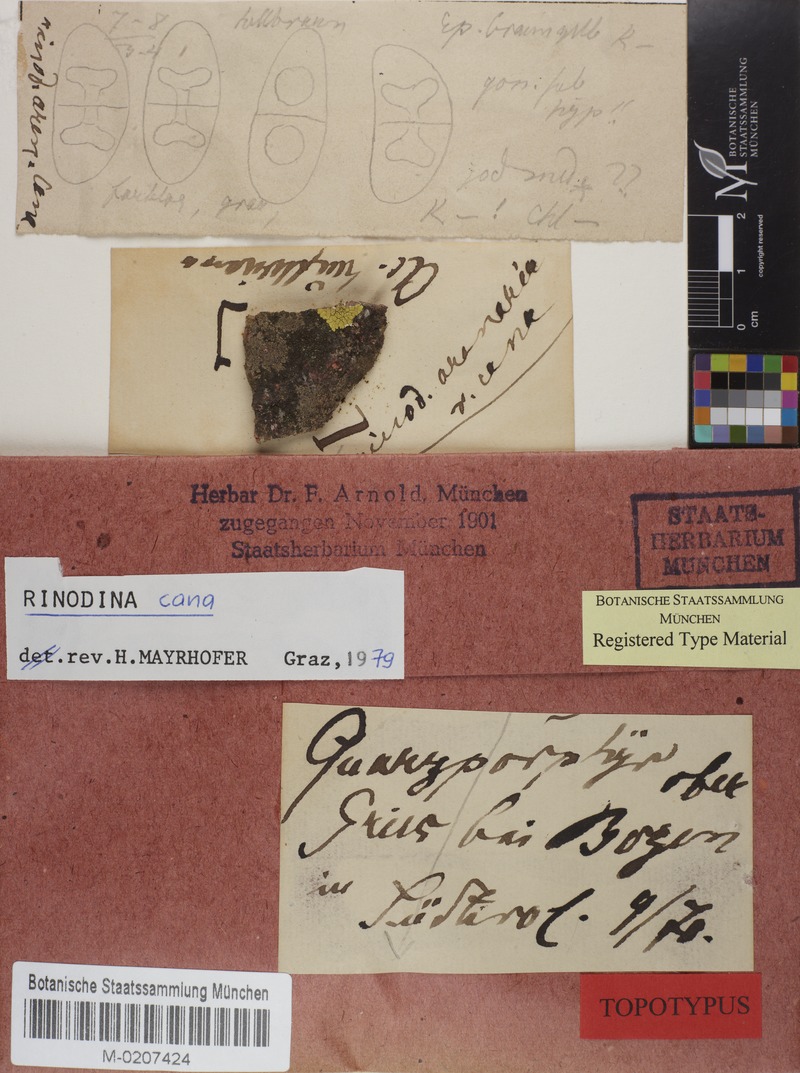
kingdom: Fungi
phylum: Ascomycota
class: Lecanoromycetes
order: Caliciales
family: Physciaceae
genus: Rinodina
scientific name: Rinodina cana
